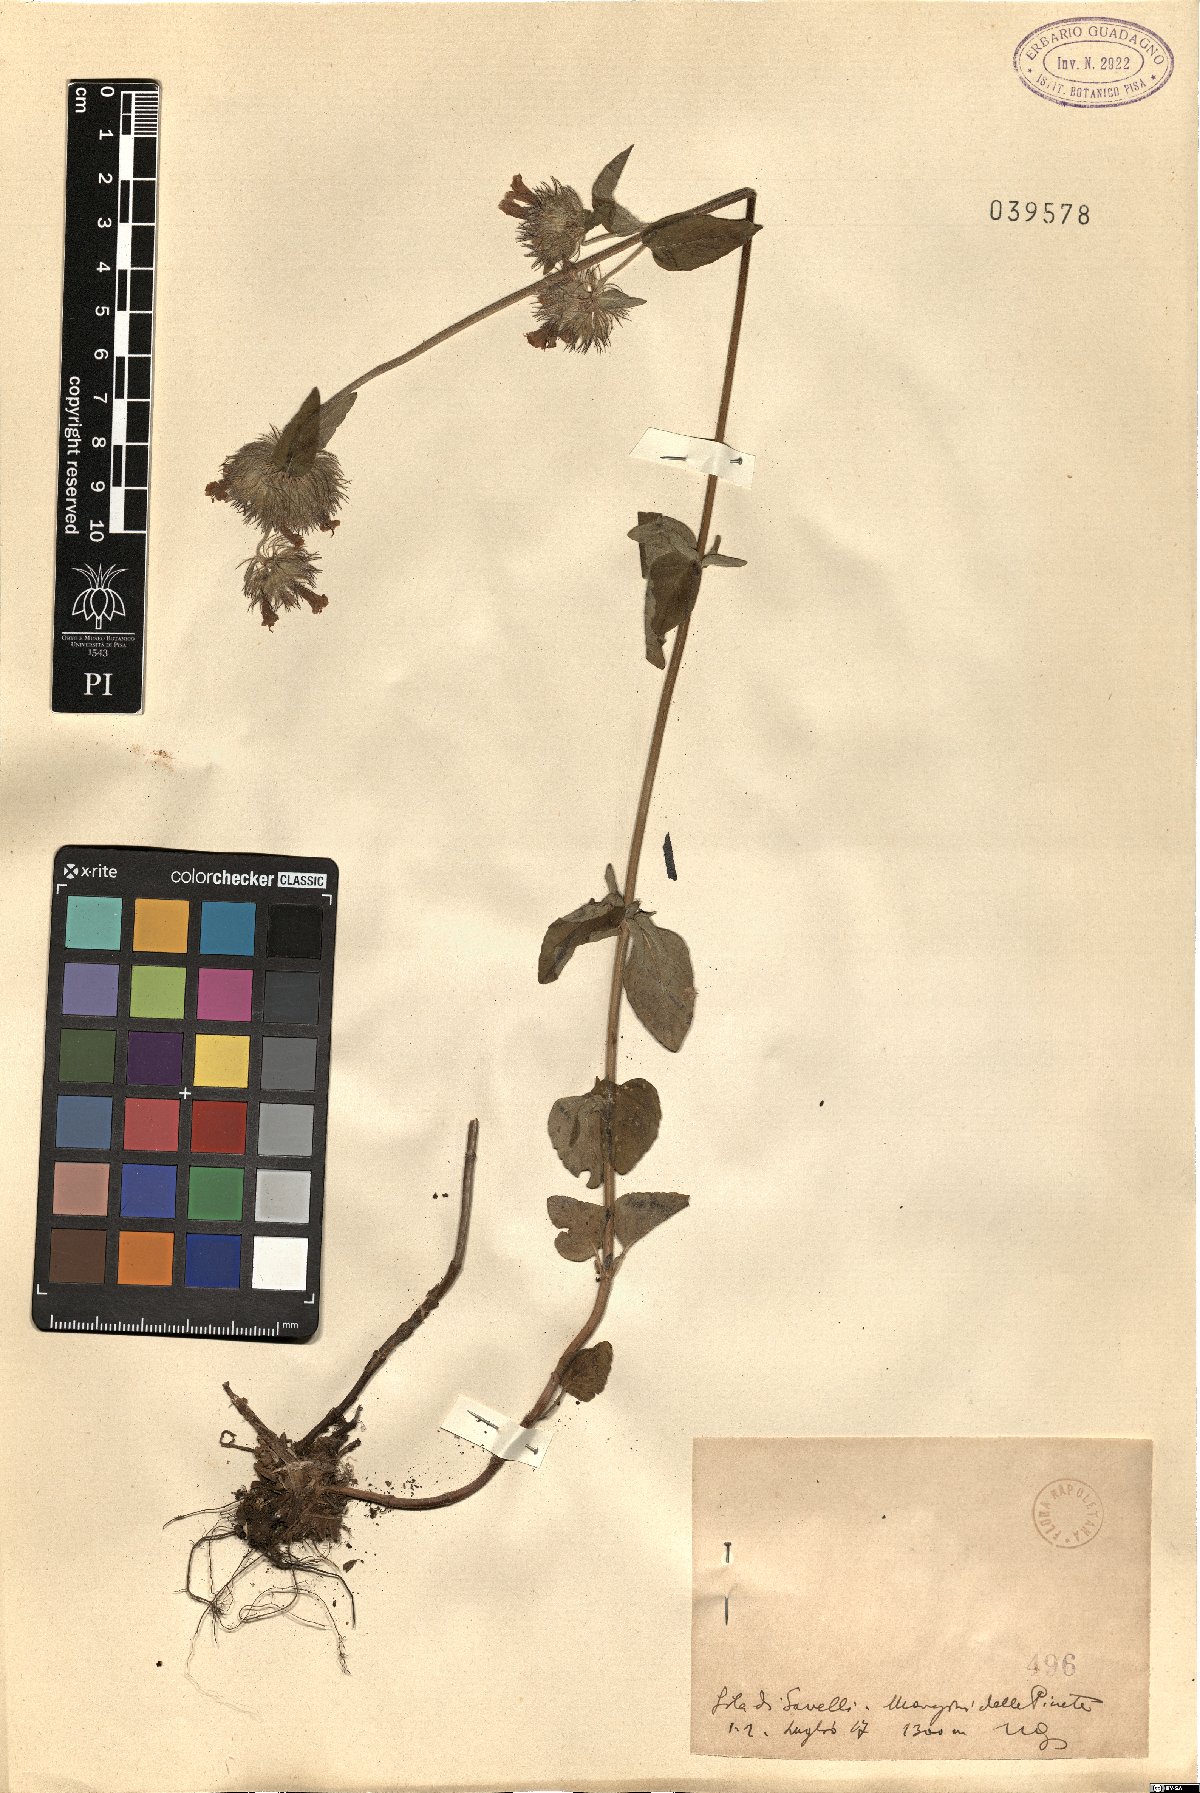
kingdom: Plantae
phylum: Tracheophyta
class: Magnoliopsida
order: Lamiales
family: Lamiaceae
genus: Micromeria
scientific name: Micromeria
